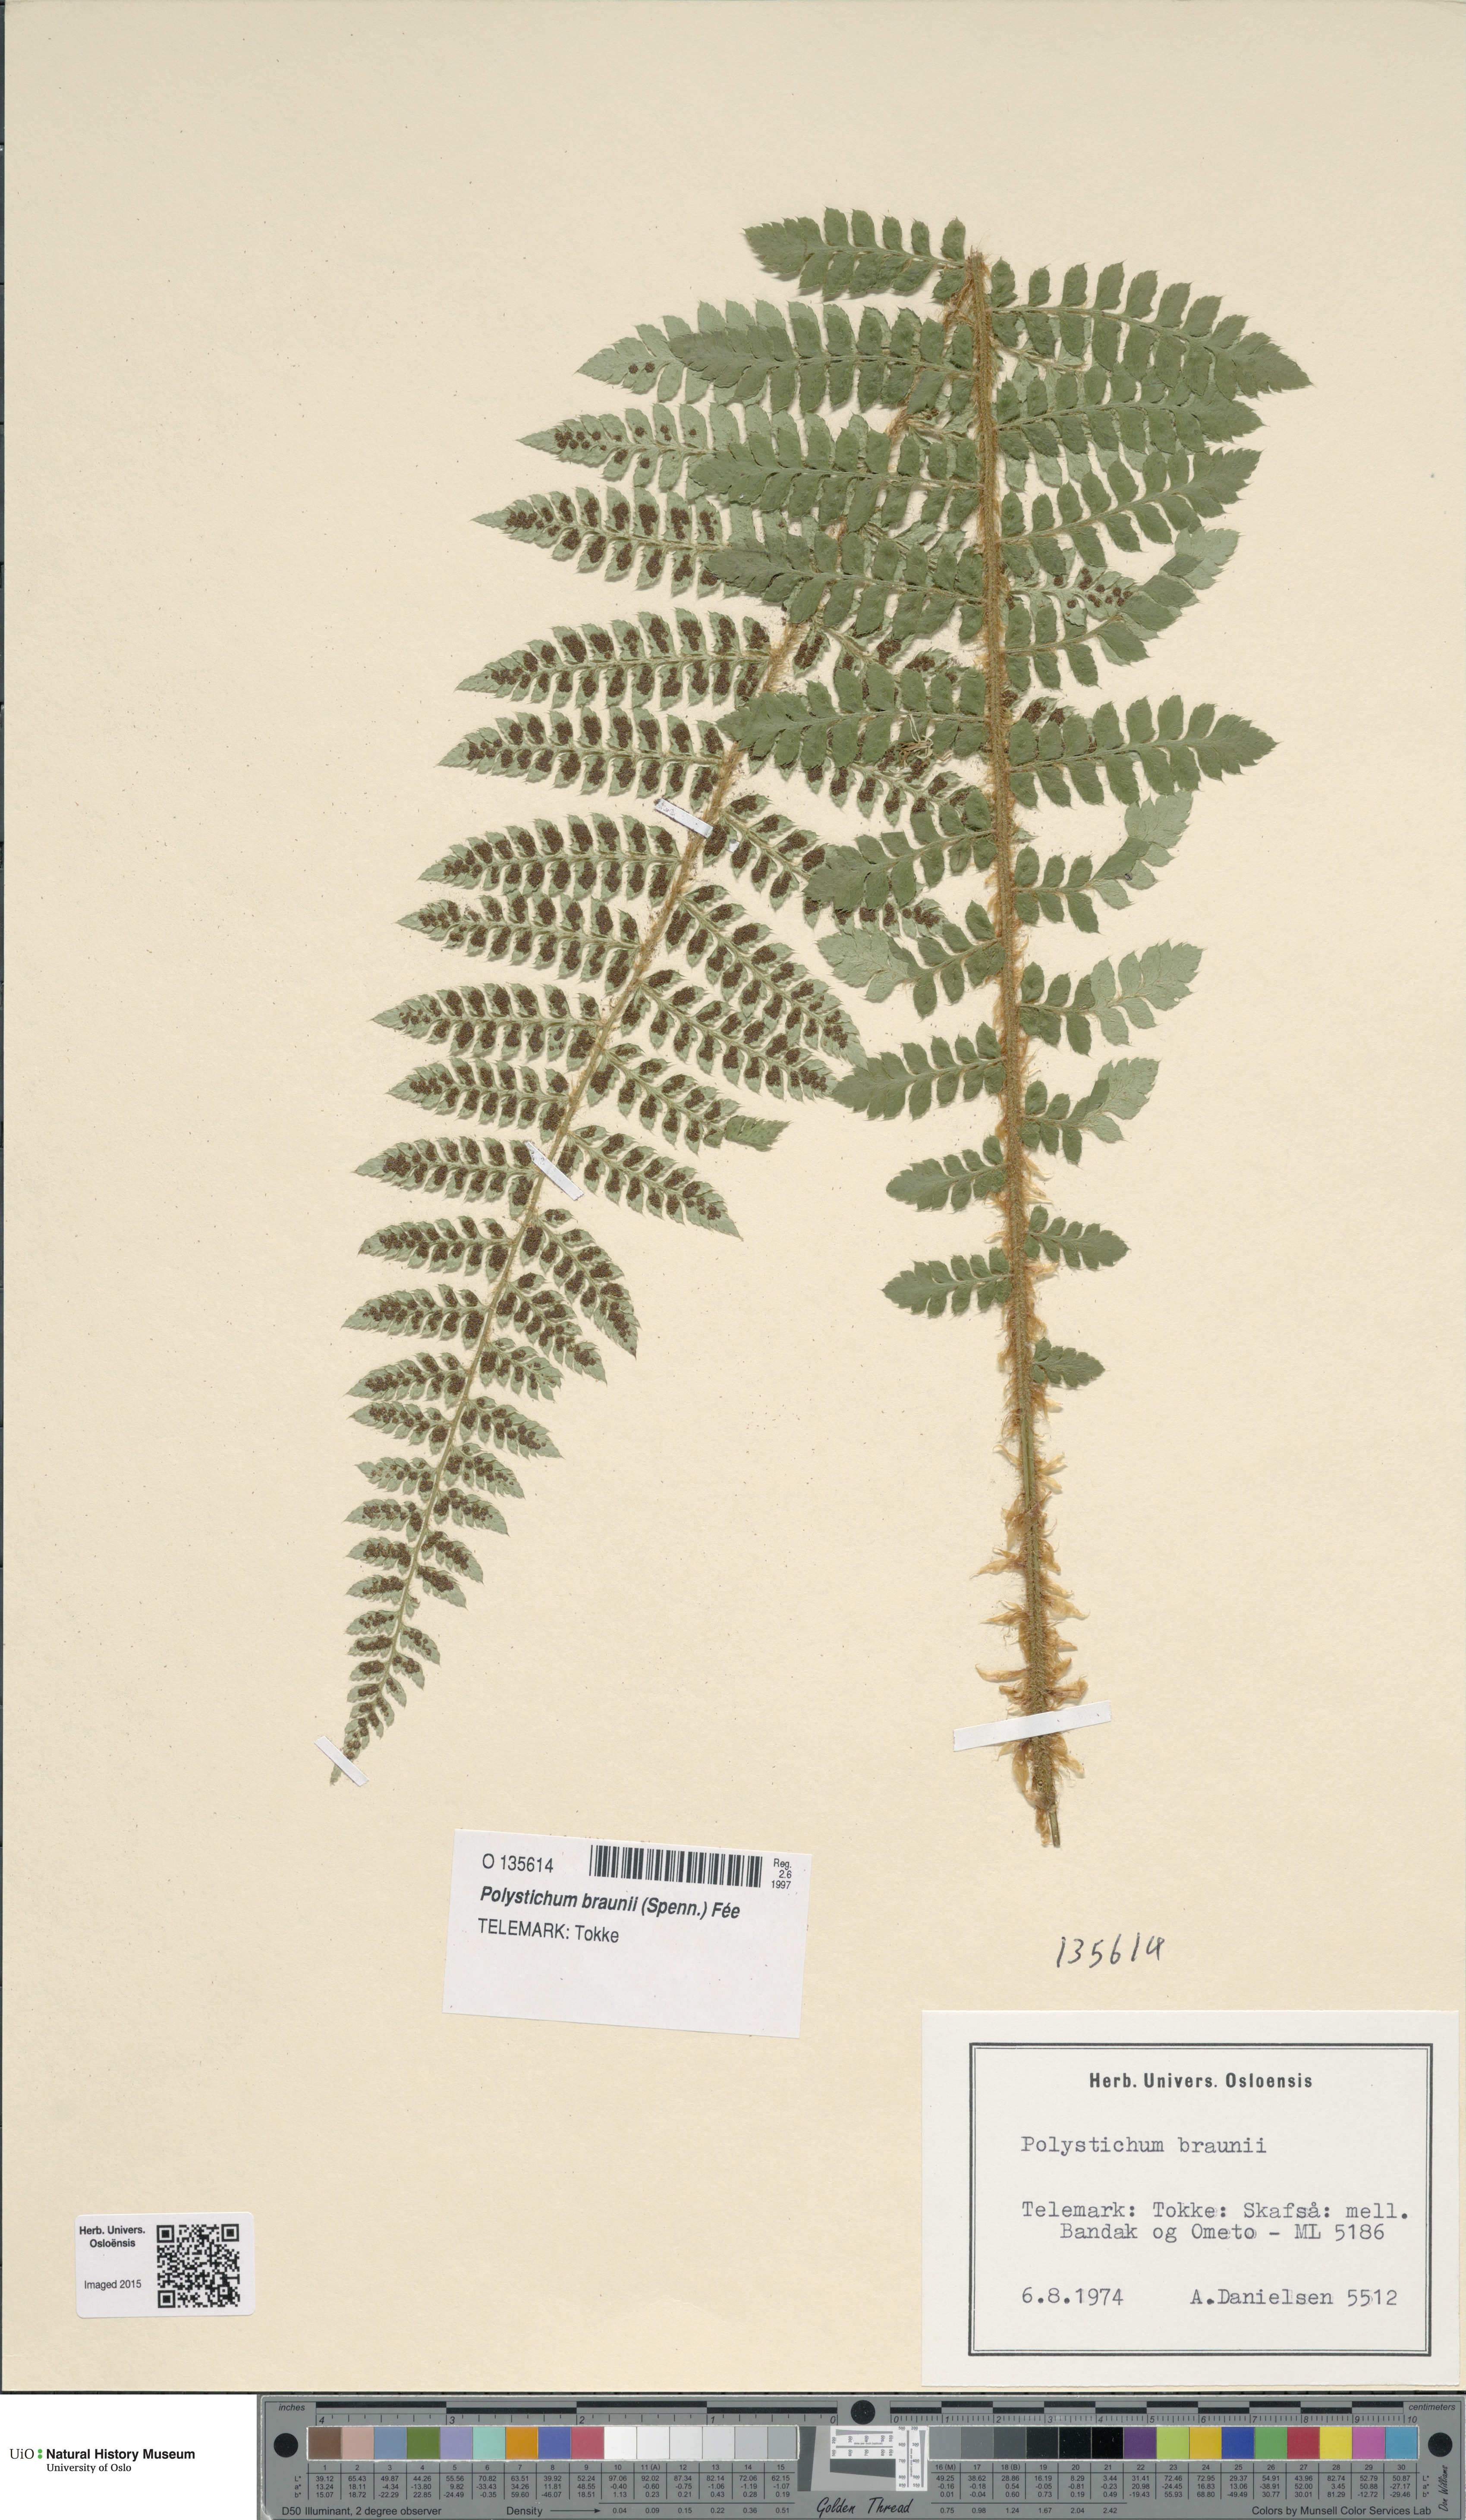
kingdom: Plantae
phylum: Tracheophyta
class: Polypodiopsida
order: Polypodiales
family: Dryopteridaceae
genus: Polystichum
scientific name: Polystichum braunii
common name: Braun's holly fern
